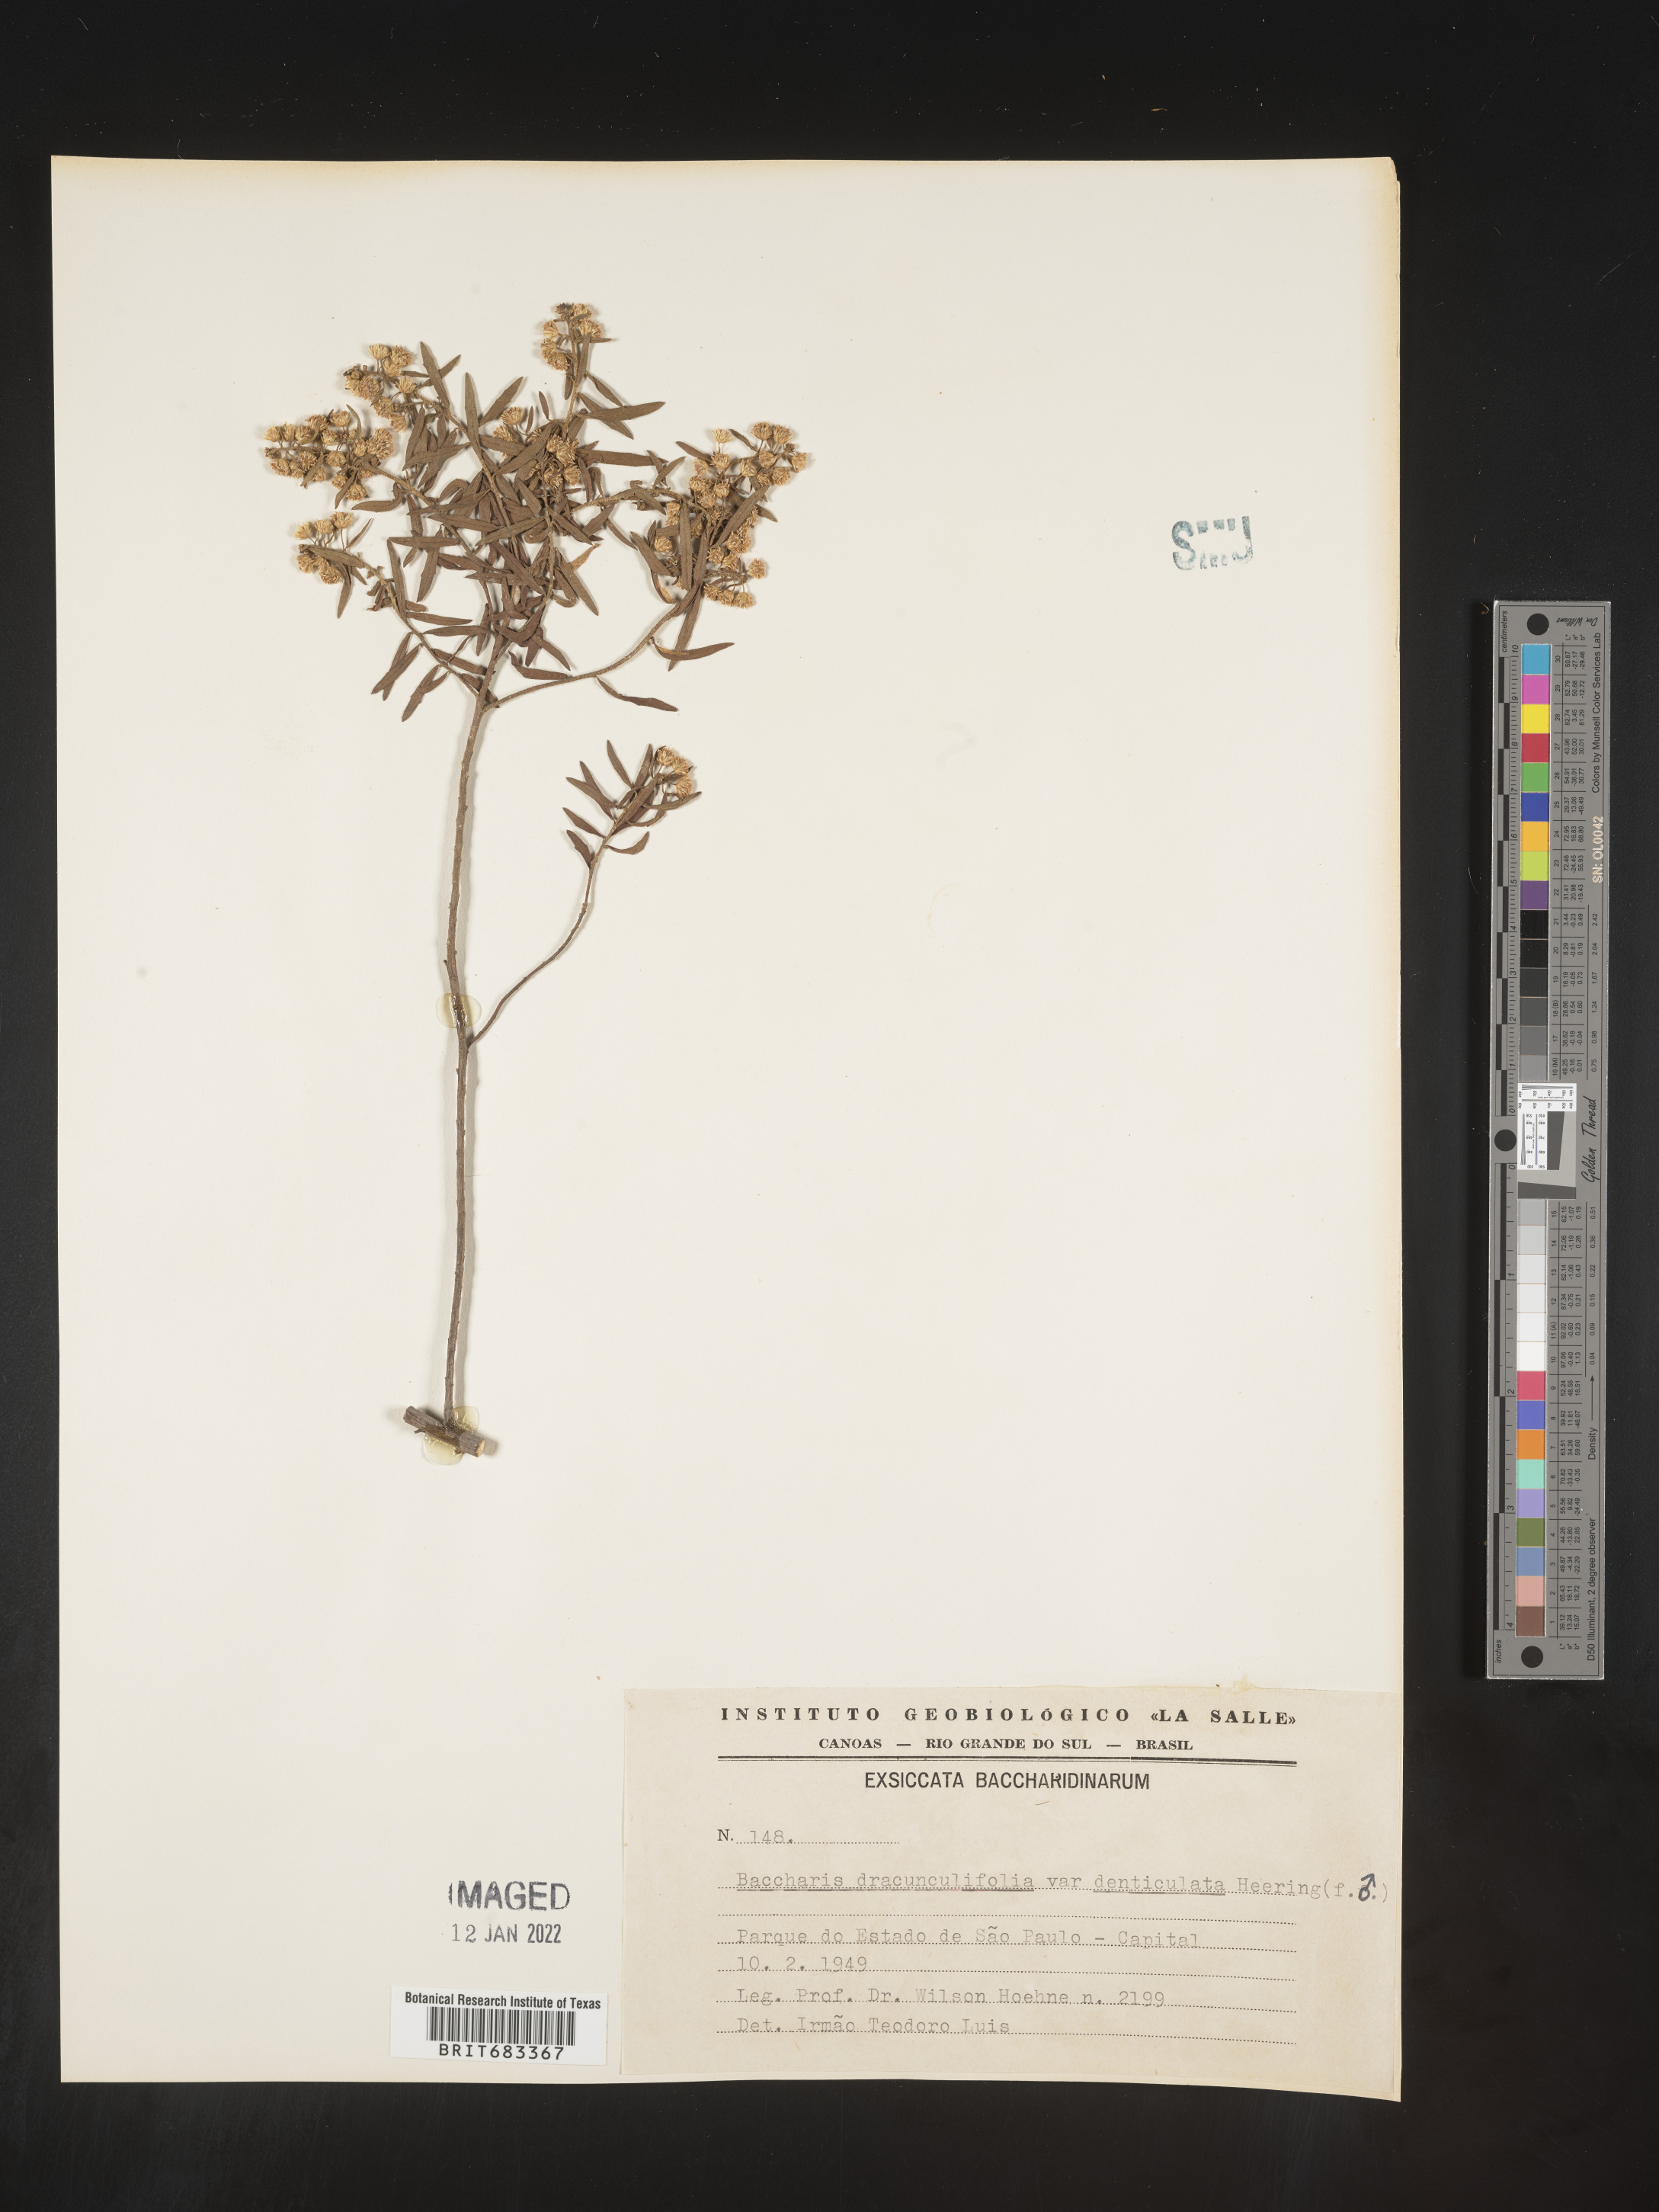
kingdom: Plantae
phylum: Tracheophyta
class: Magnoliopsida
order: Asterales
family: Asteraceae
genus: Baccharis
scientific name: Baccharis
